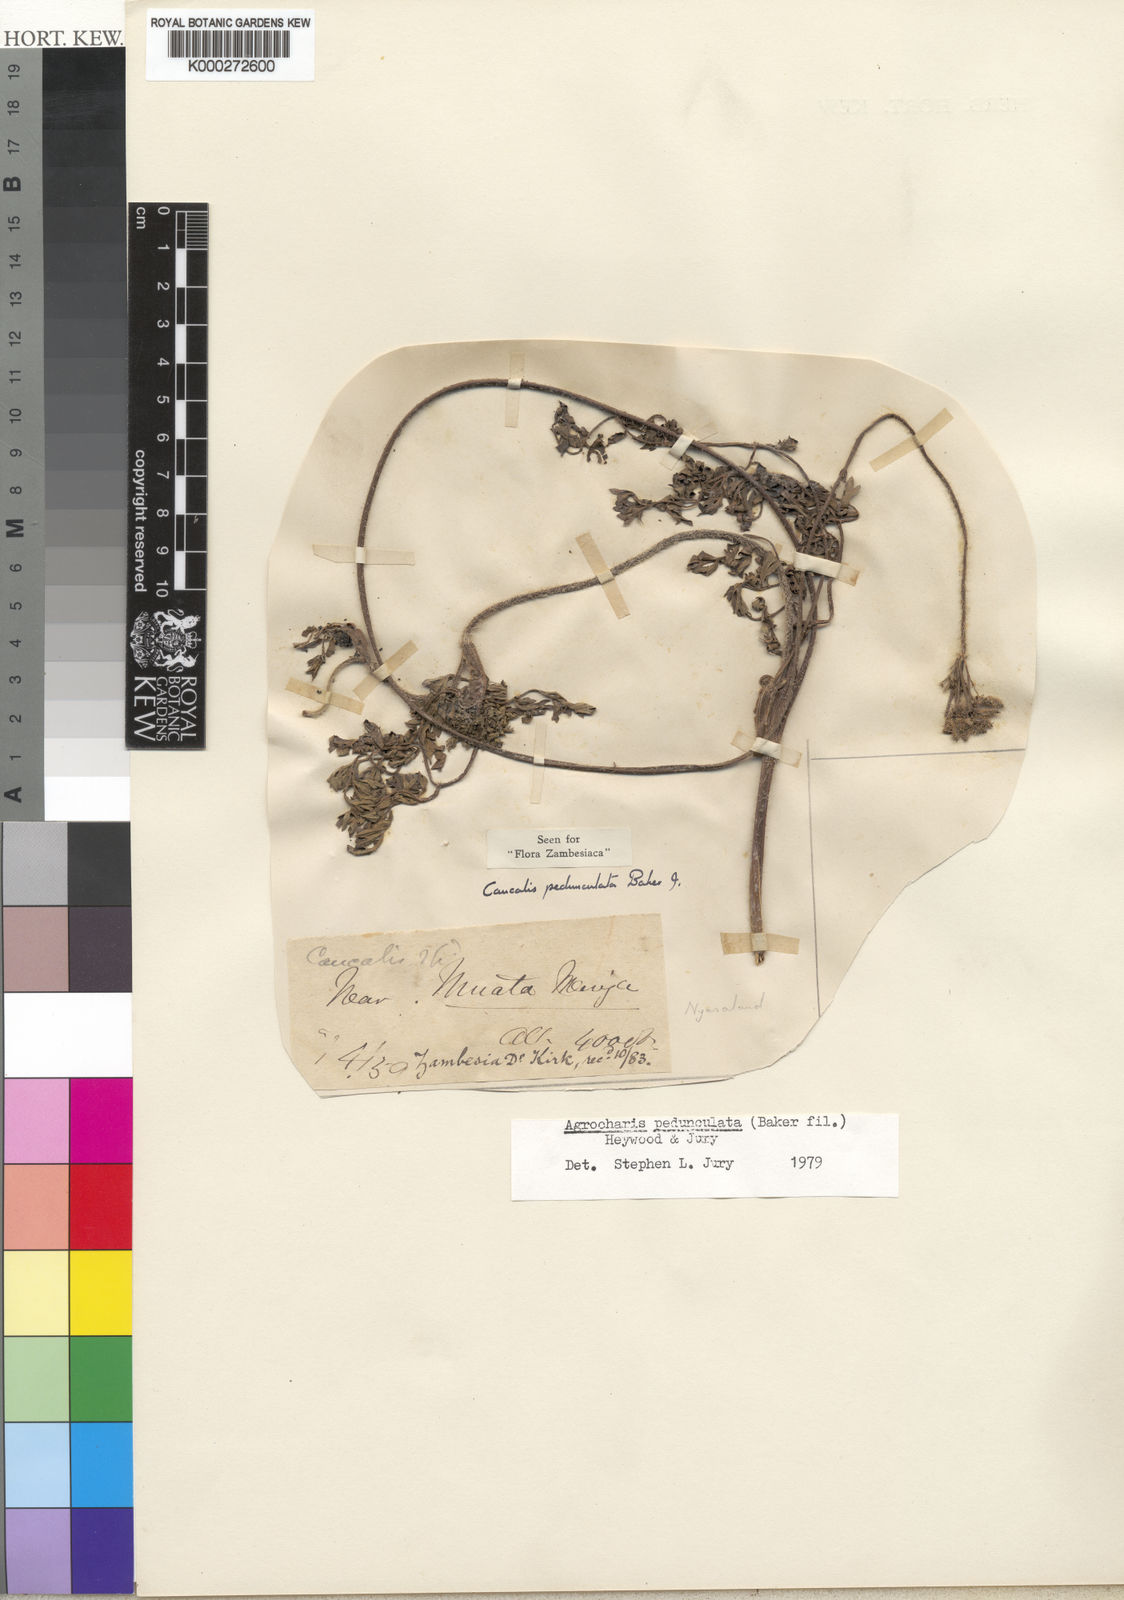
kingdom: Plantae
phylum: Tracheophyta
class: Magnoliopsida
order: Apiales
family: Apiaceae
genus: Daucus
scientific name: Daucus pedunculatus
